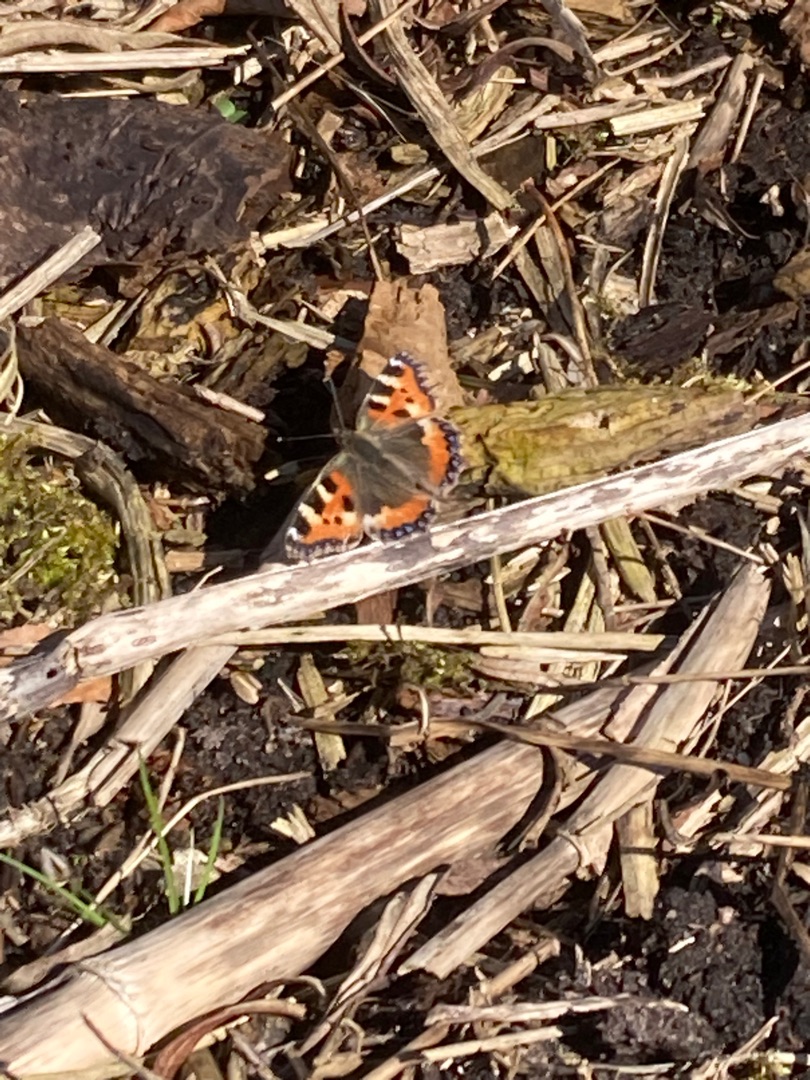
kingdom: Animalia
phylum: Arthropoda
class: Insecta
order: Lepidoptera
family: Nymphalidae
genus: Aglais
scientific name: Aglais urticae
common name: Nældens takvinge
